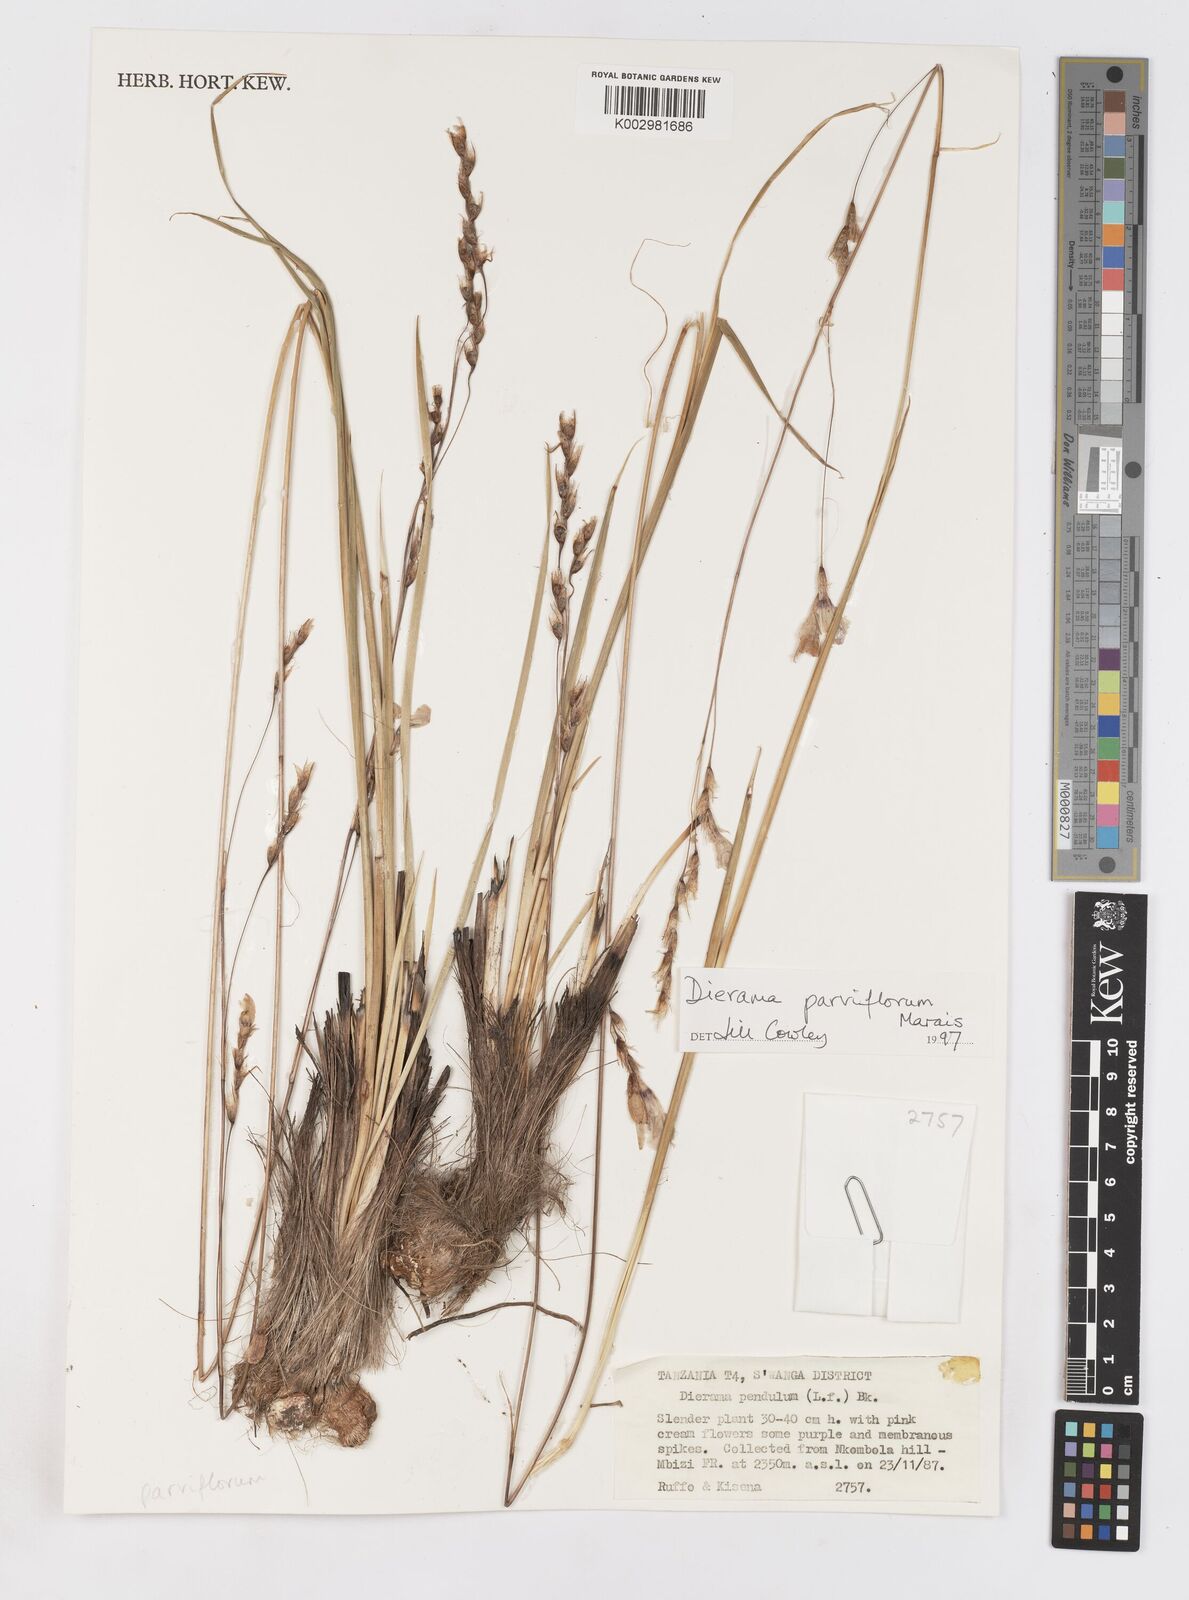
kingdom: Plantae
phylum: Tracheophyta
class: Liliopsida
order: Asparagales
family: Iridaceae
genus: Dierama
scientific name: Dierama parviflorum
